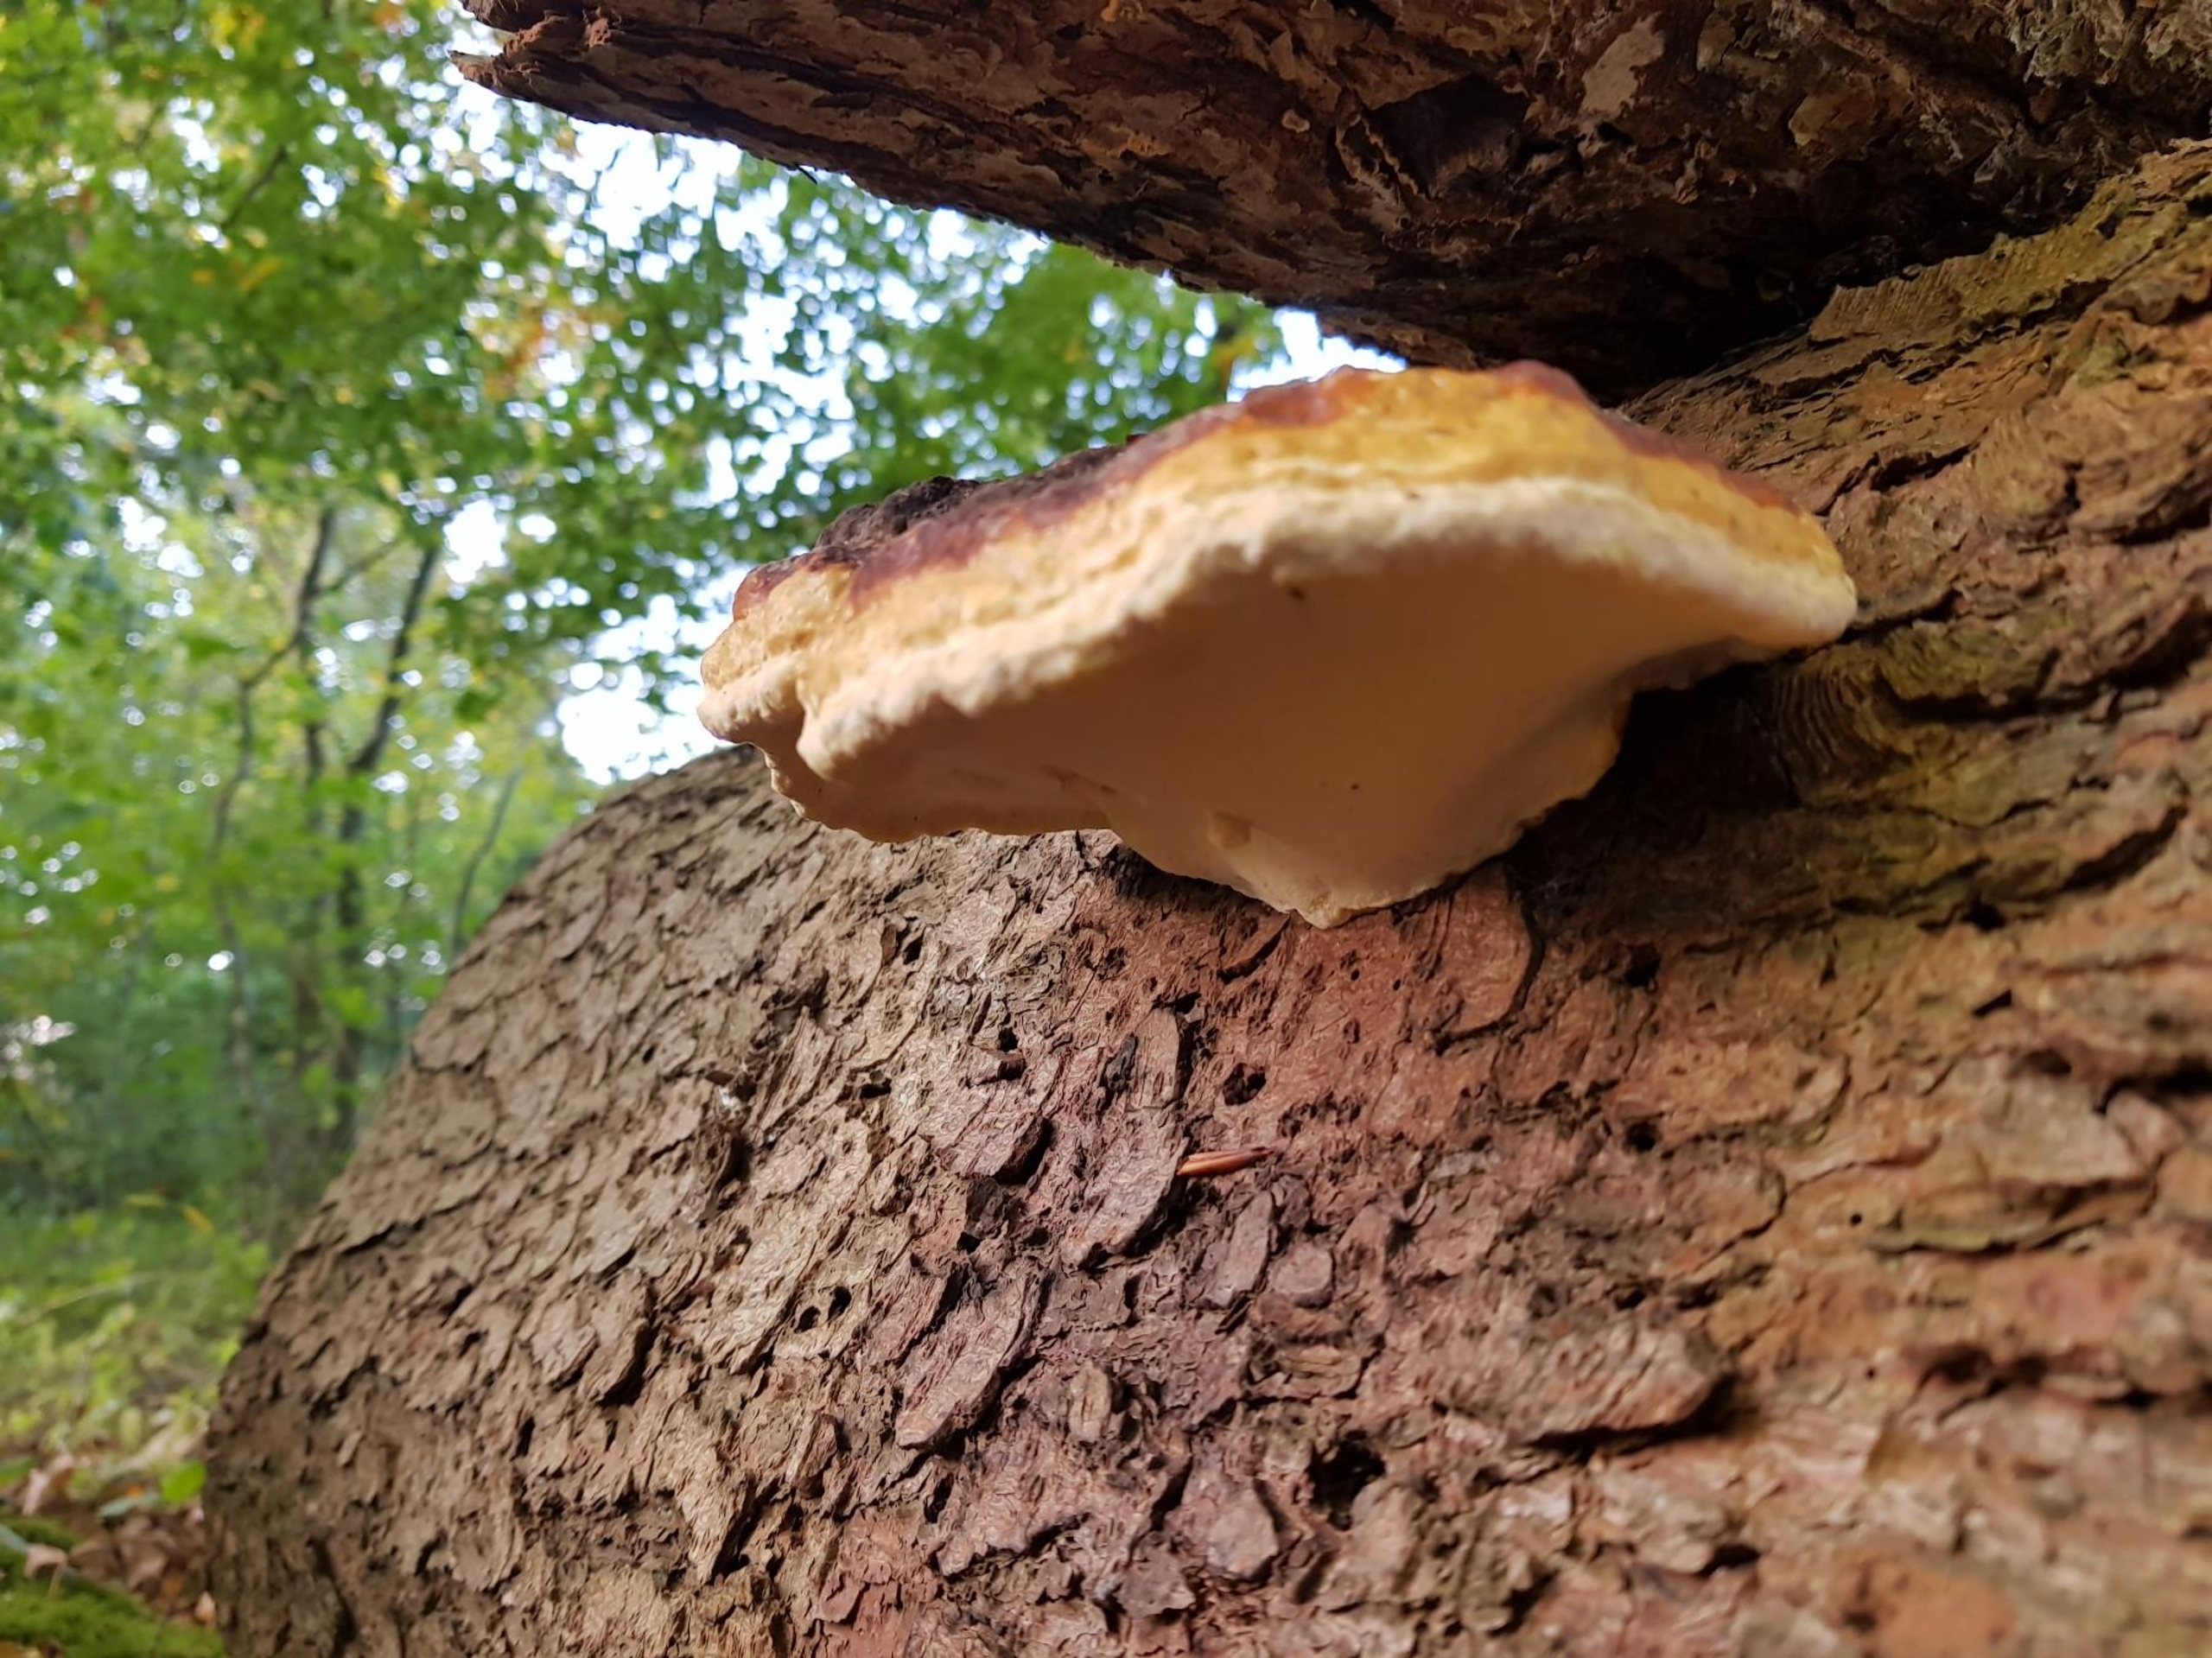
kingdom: Fungi
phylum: Basidiomycota
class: Agaricomycetes
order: Polyporales
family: Fomitopsidaceae
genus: Fomitopsis
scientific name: Fomitopsis pinicola
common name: Randbæltet hovporesvamp
